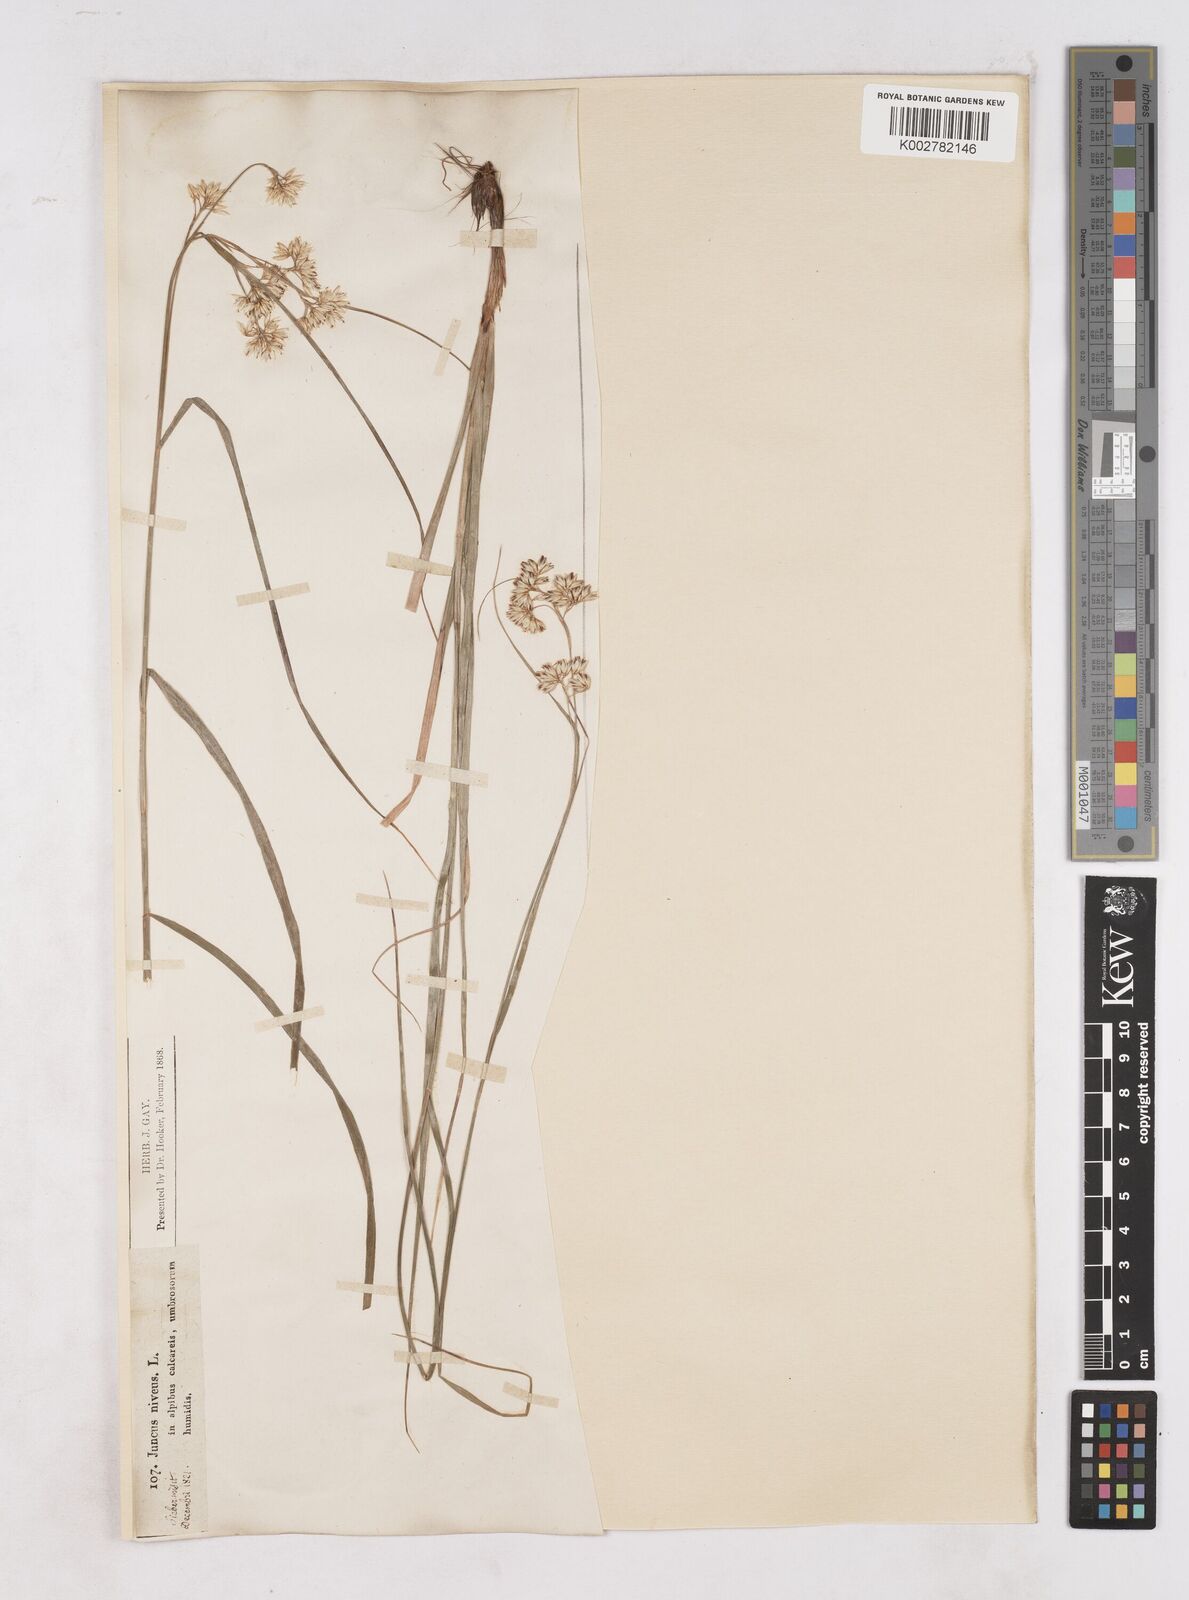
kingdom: Plantae
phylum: Tracheophyta
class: Liliopsida
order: Poales
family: Juncaceae
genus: Luzula
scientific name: Luzula nivea
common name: Snow-white wood-rush
